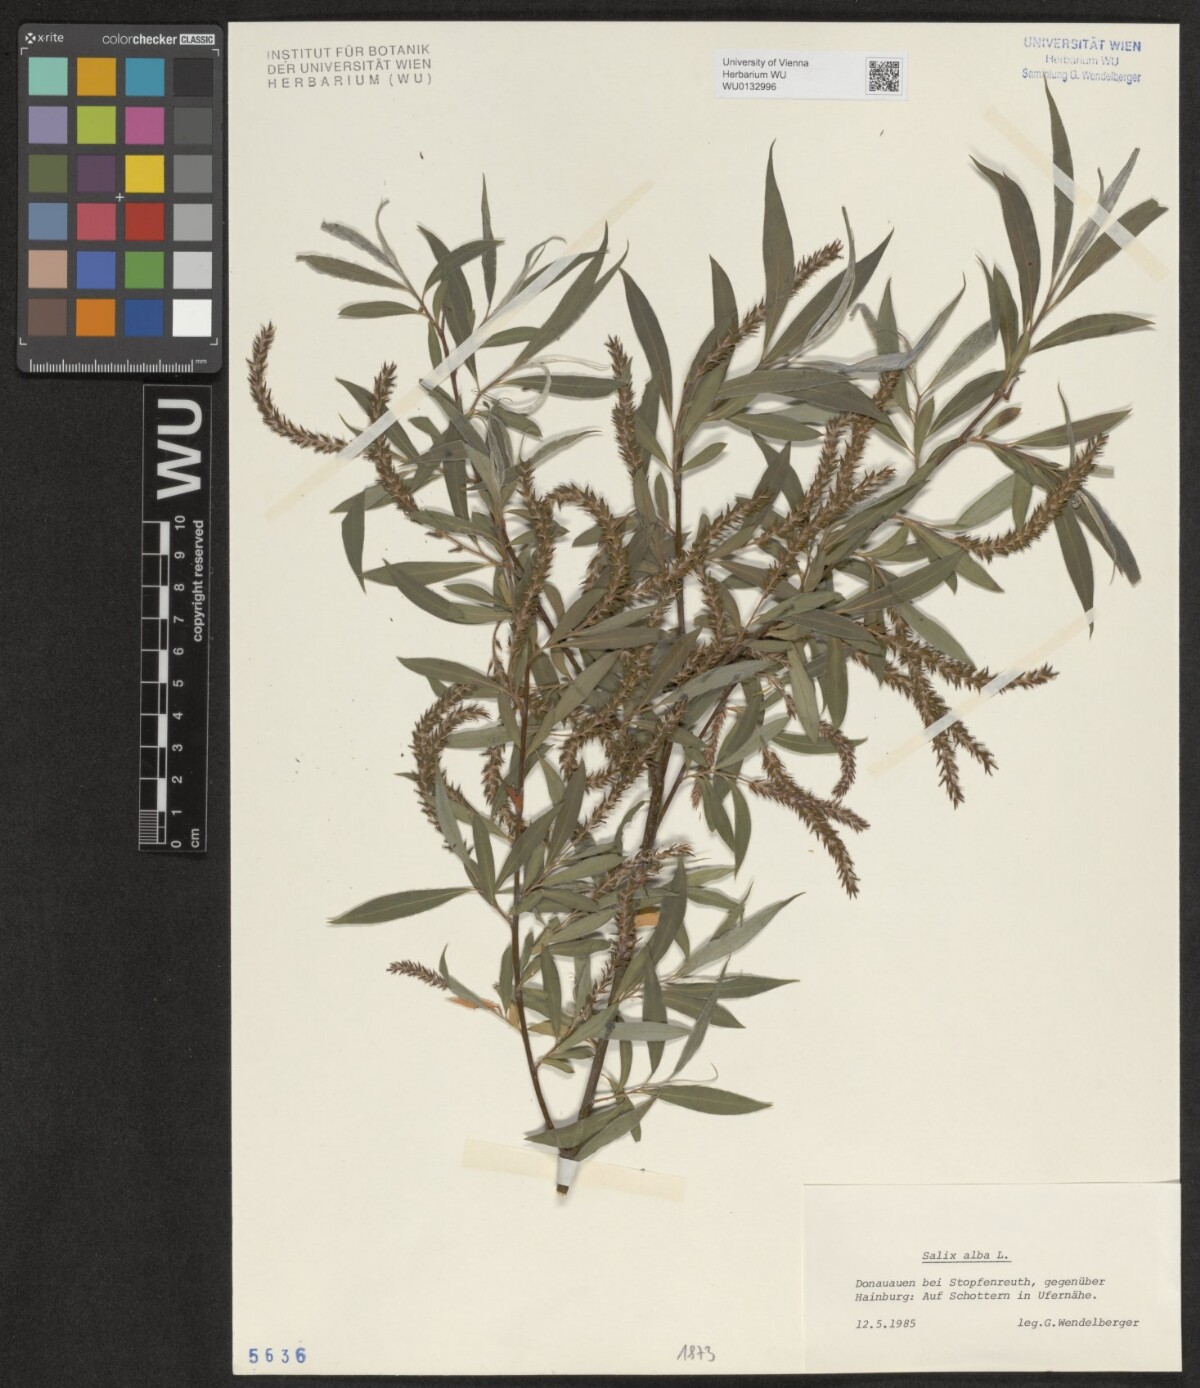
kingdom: Plantae
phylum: Tracheophyta
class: Magnoliopsida
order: Malpighiales
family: Salicaceae
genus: Salix
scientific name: Salix alba
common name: White willow
